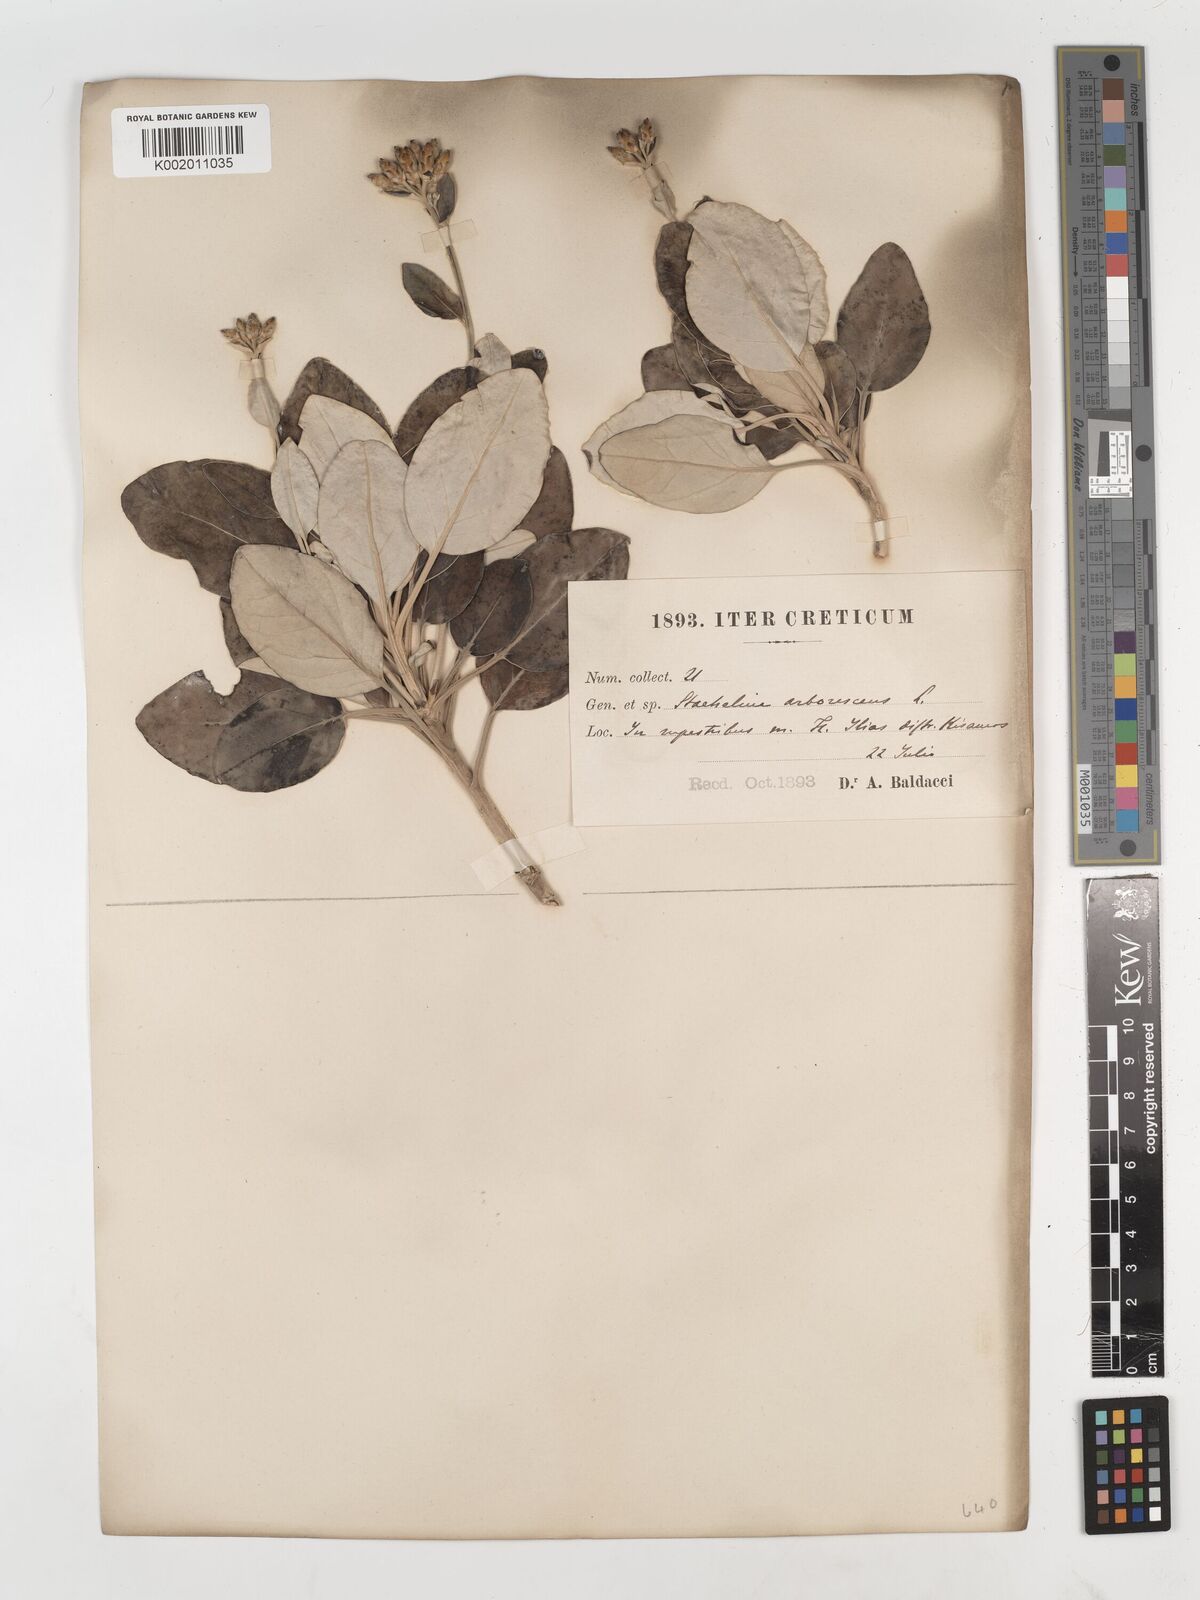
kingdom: Plantae
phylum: Tracheophyta
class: Magnoliopsida
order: Asterales
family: Asteraceae
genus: Staehelina
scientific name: Staehelina petiolata
